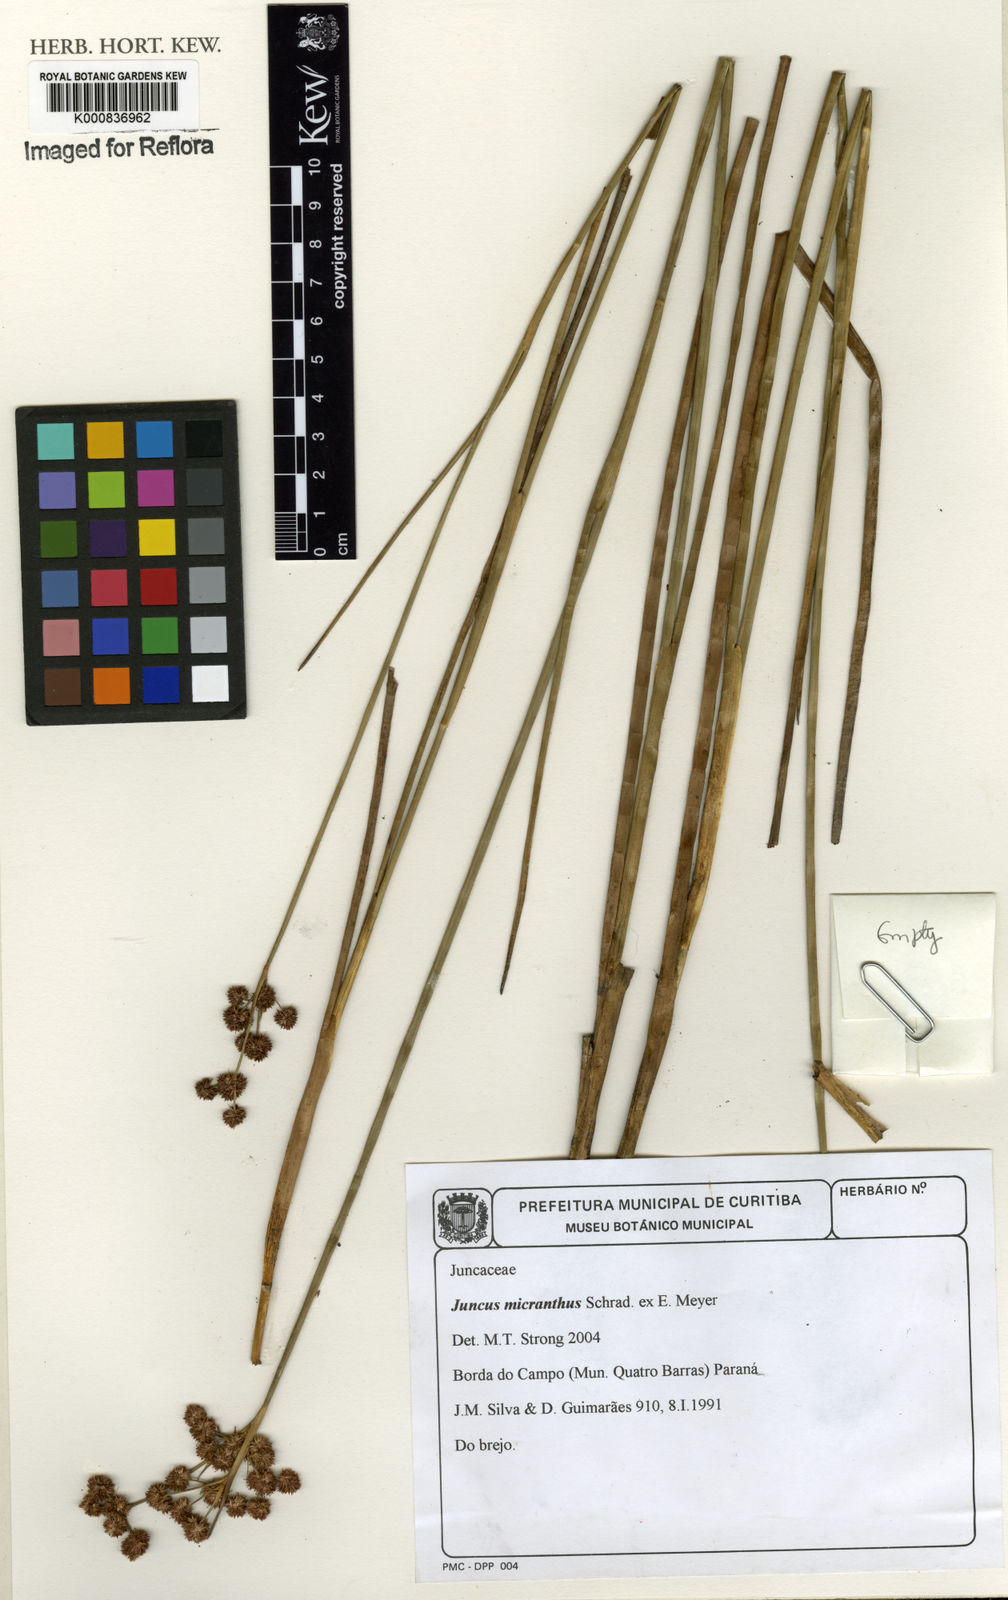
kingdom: Plantae
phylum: Tracheophyta
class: Liliopsida
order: Poales
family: Juncaceae
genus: Juncus
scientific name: Juncus
